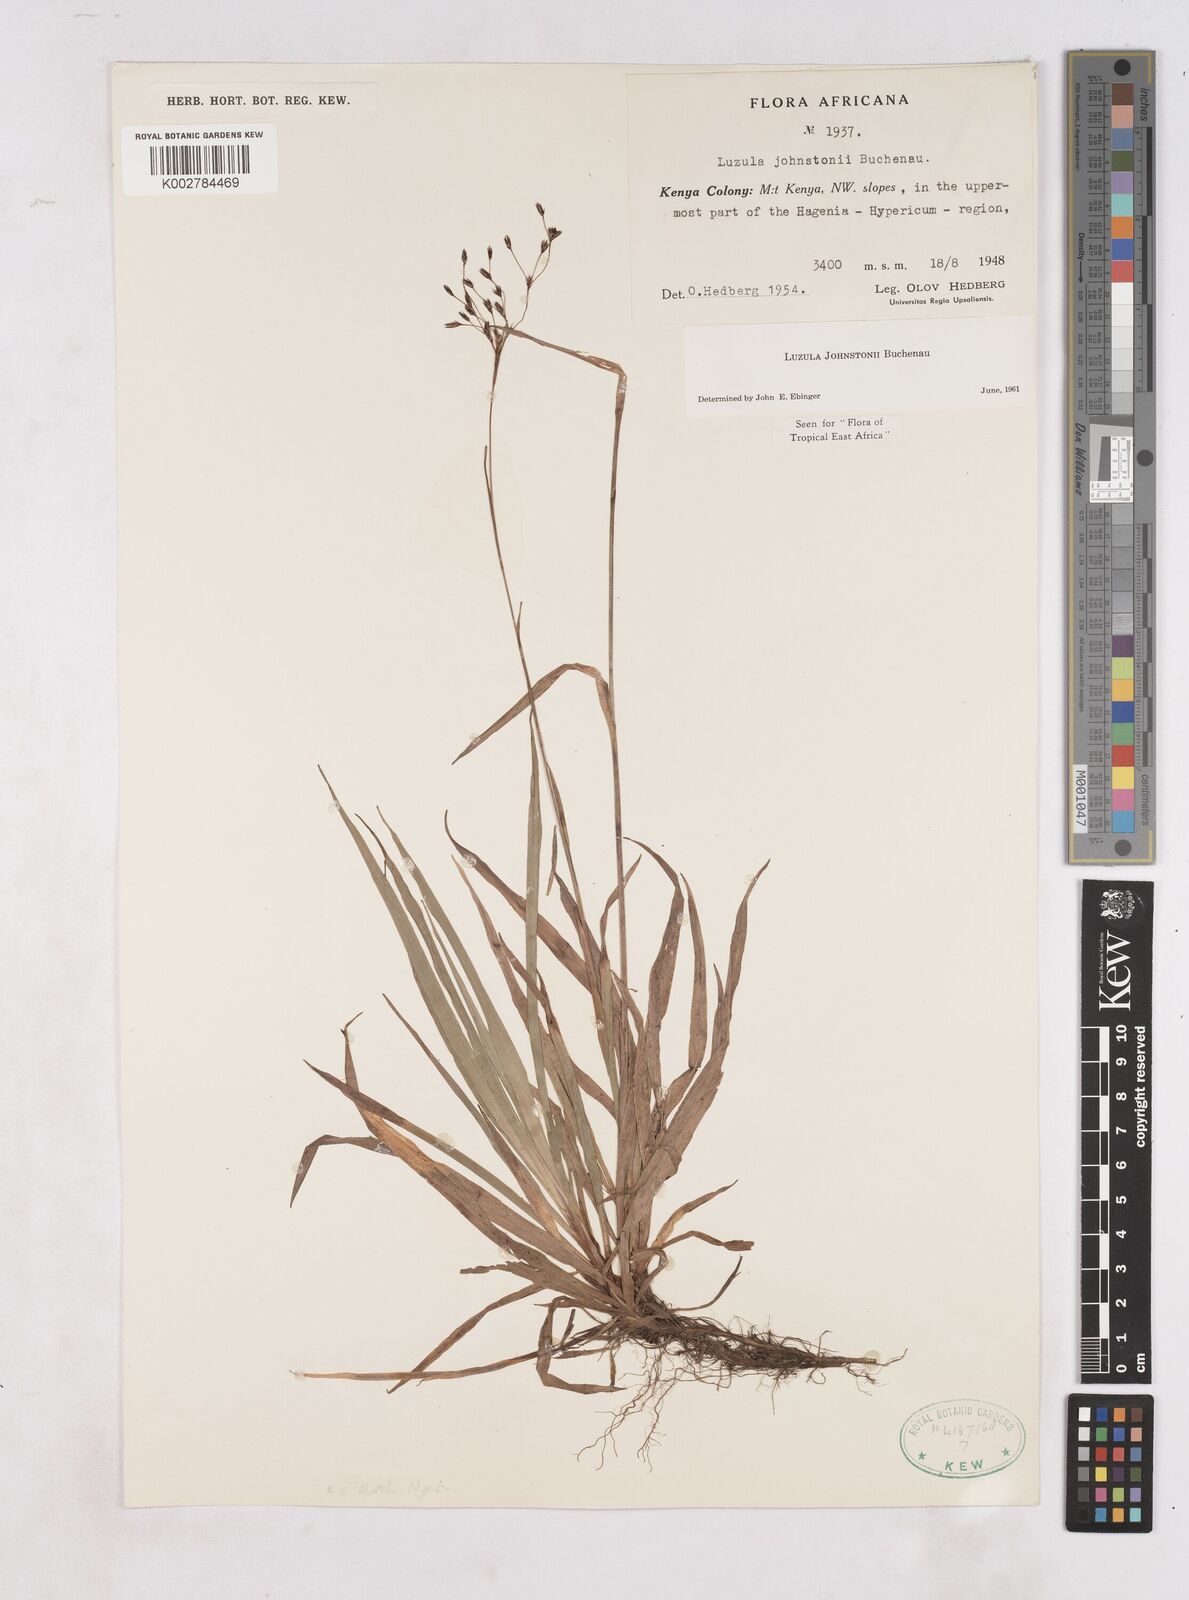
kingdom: Plantae
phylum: Tracheophyta
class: Liliopsida
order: Poales
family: Juncaceae
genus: Luzula
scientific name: Luzula johnstonii
